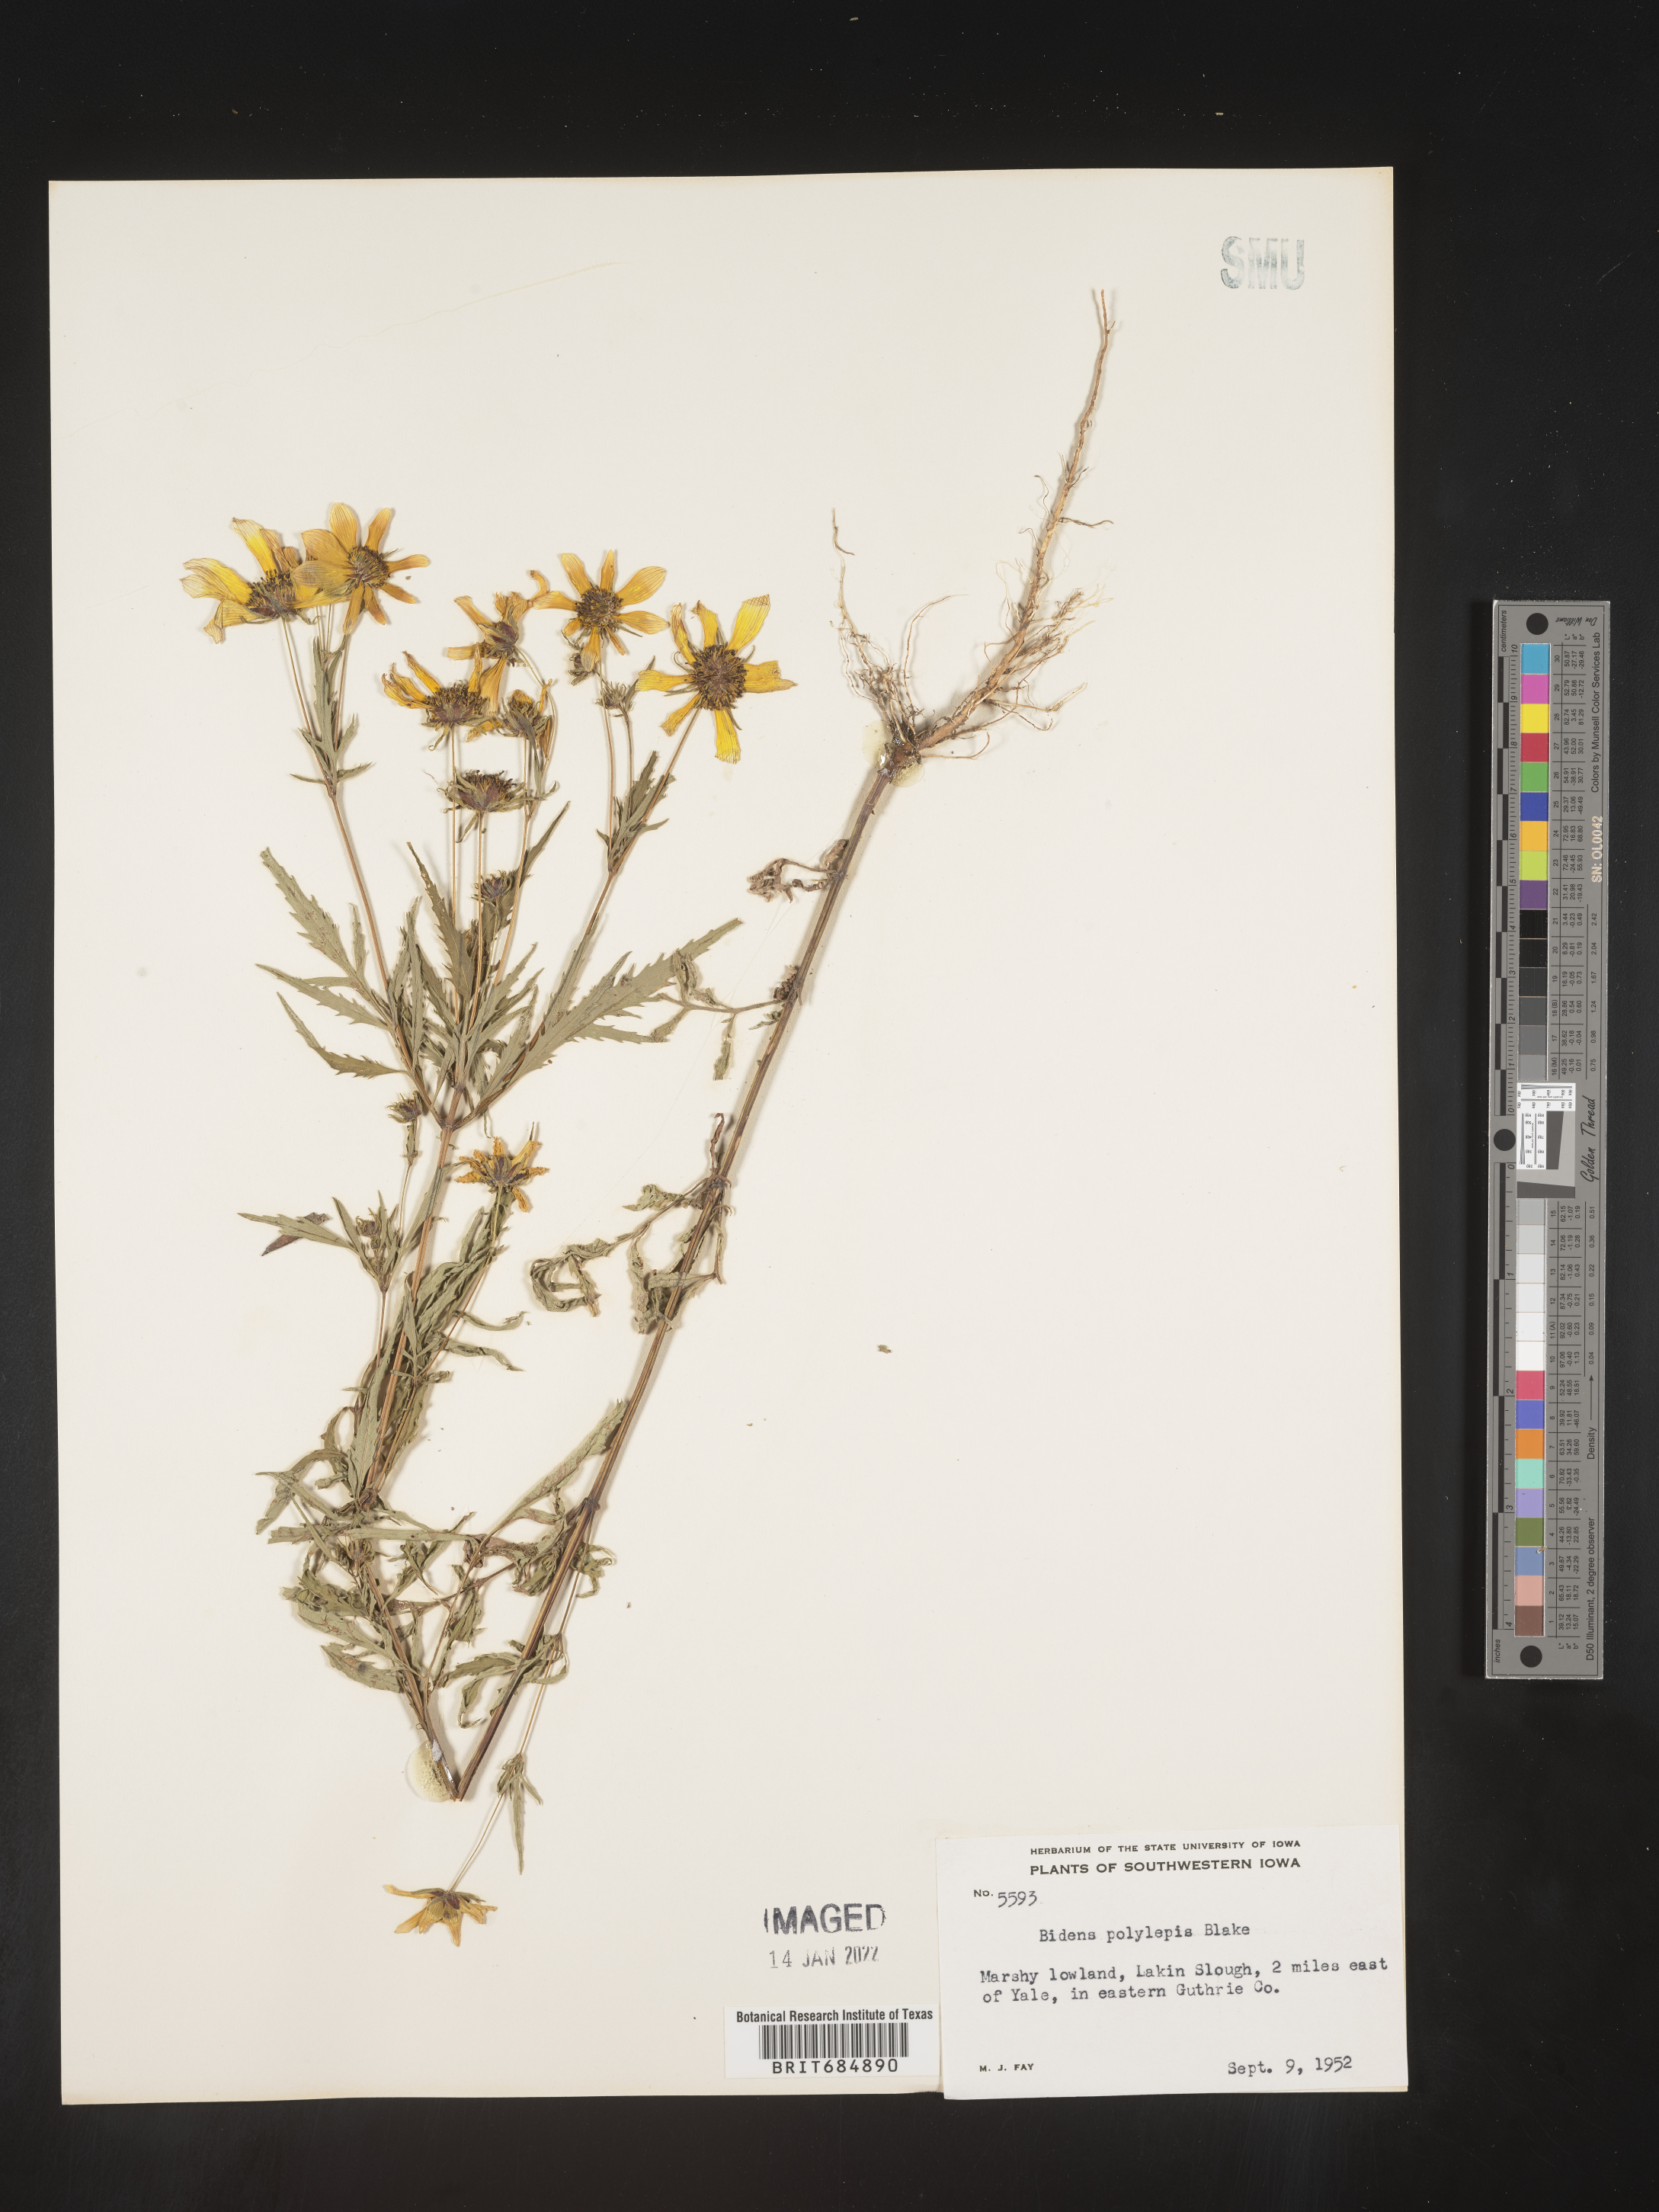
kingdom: Plantae
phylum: Tracheophyta
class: Magnoliopsida
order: Asterales
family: Asteraceae
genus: Bidens
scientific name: Bidens tripartita
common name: Trifid bur-marigold
